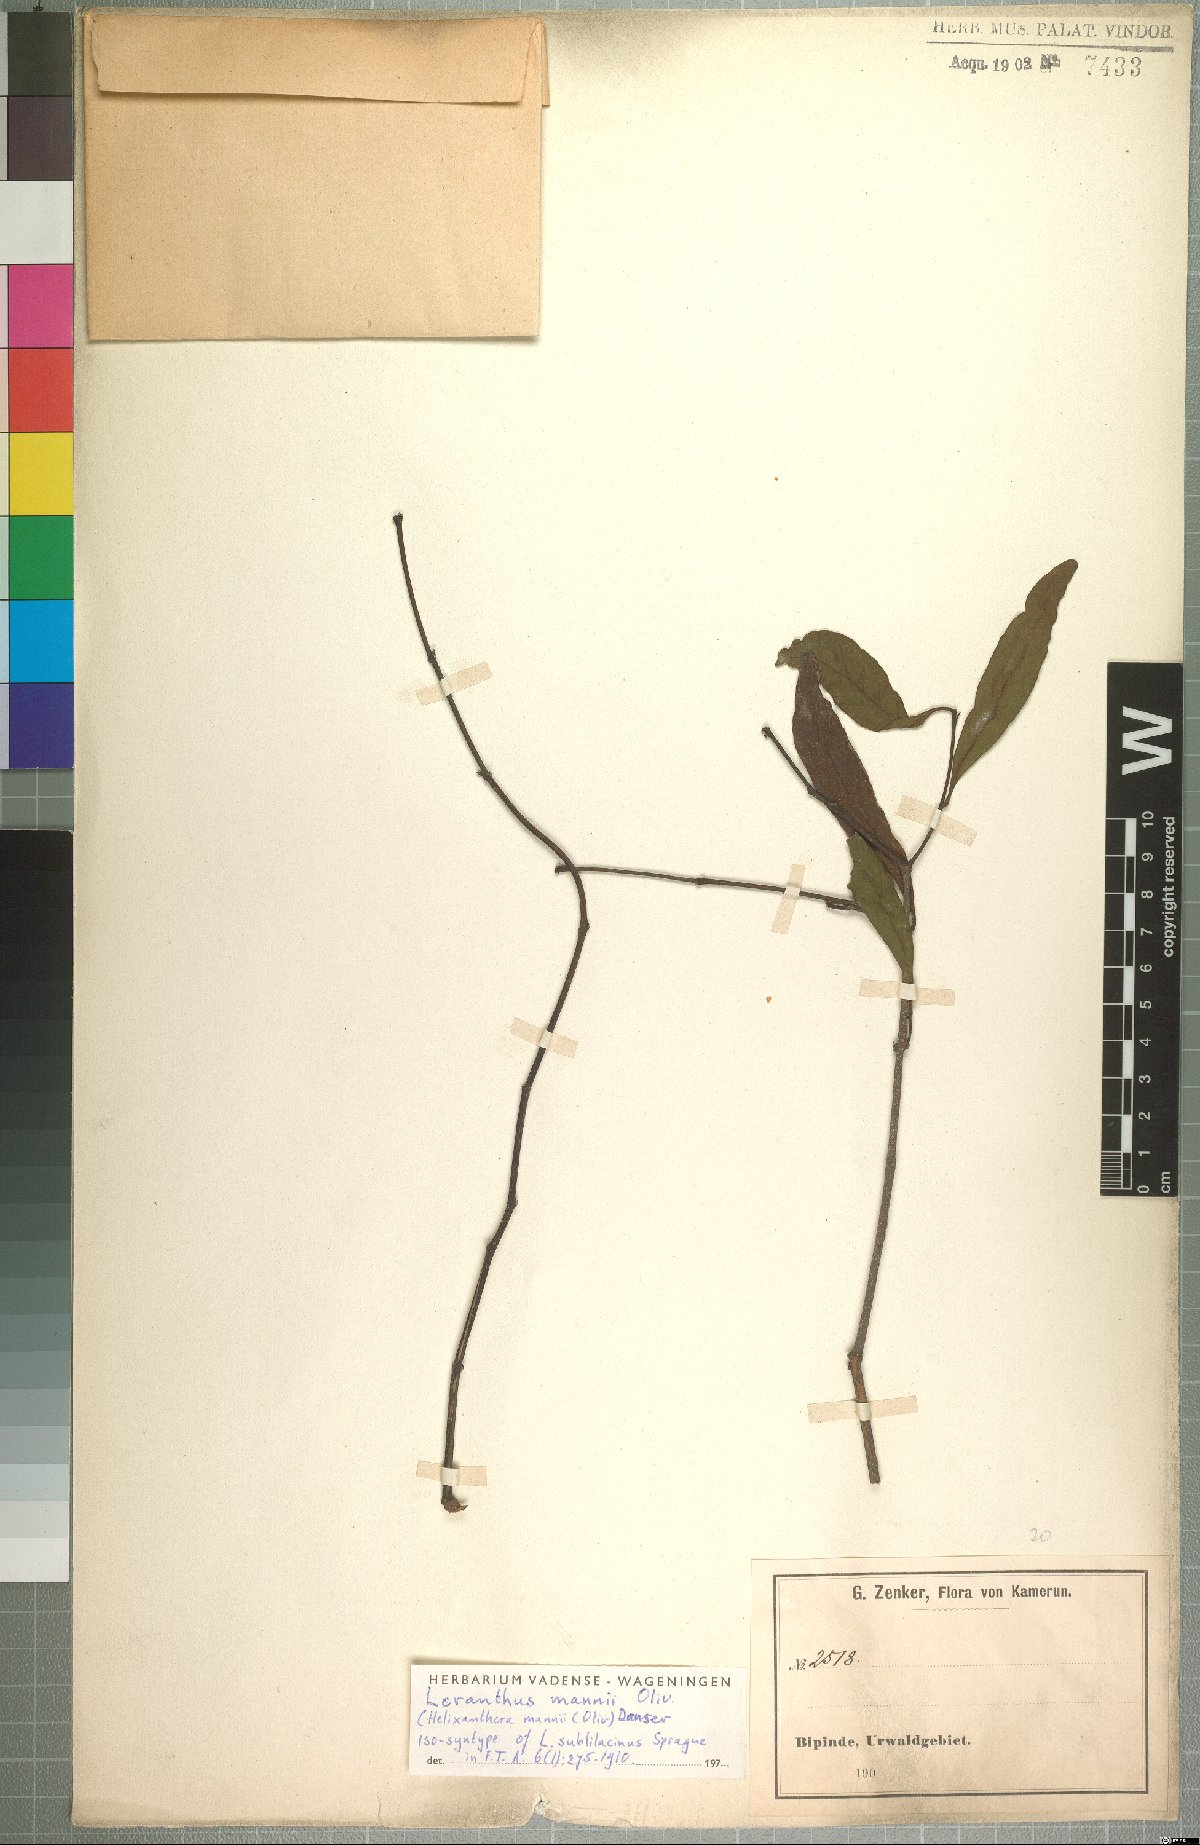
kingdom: Plantae
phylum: Tracheophyta
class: Magnoliopsida
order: Santalales
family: Loranthaceae
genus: Helixanthera
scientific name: Helixanthera mannii
